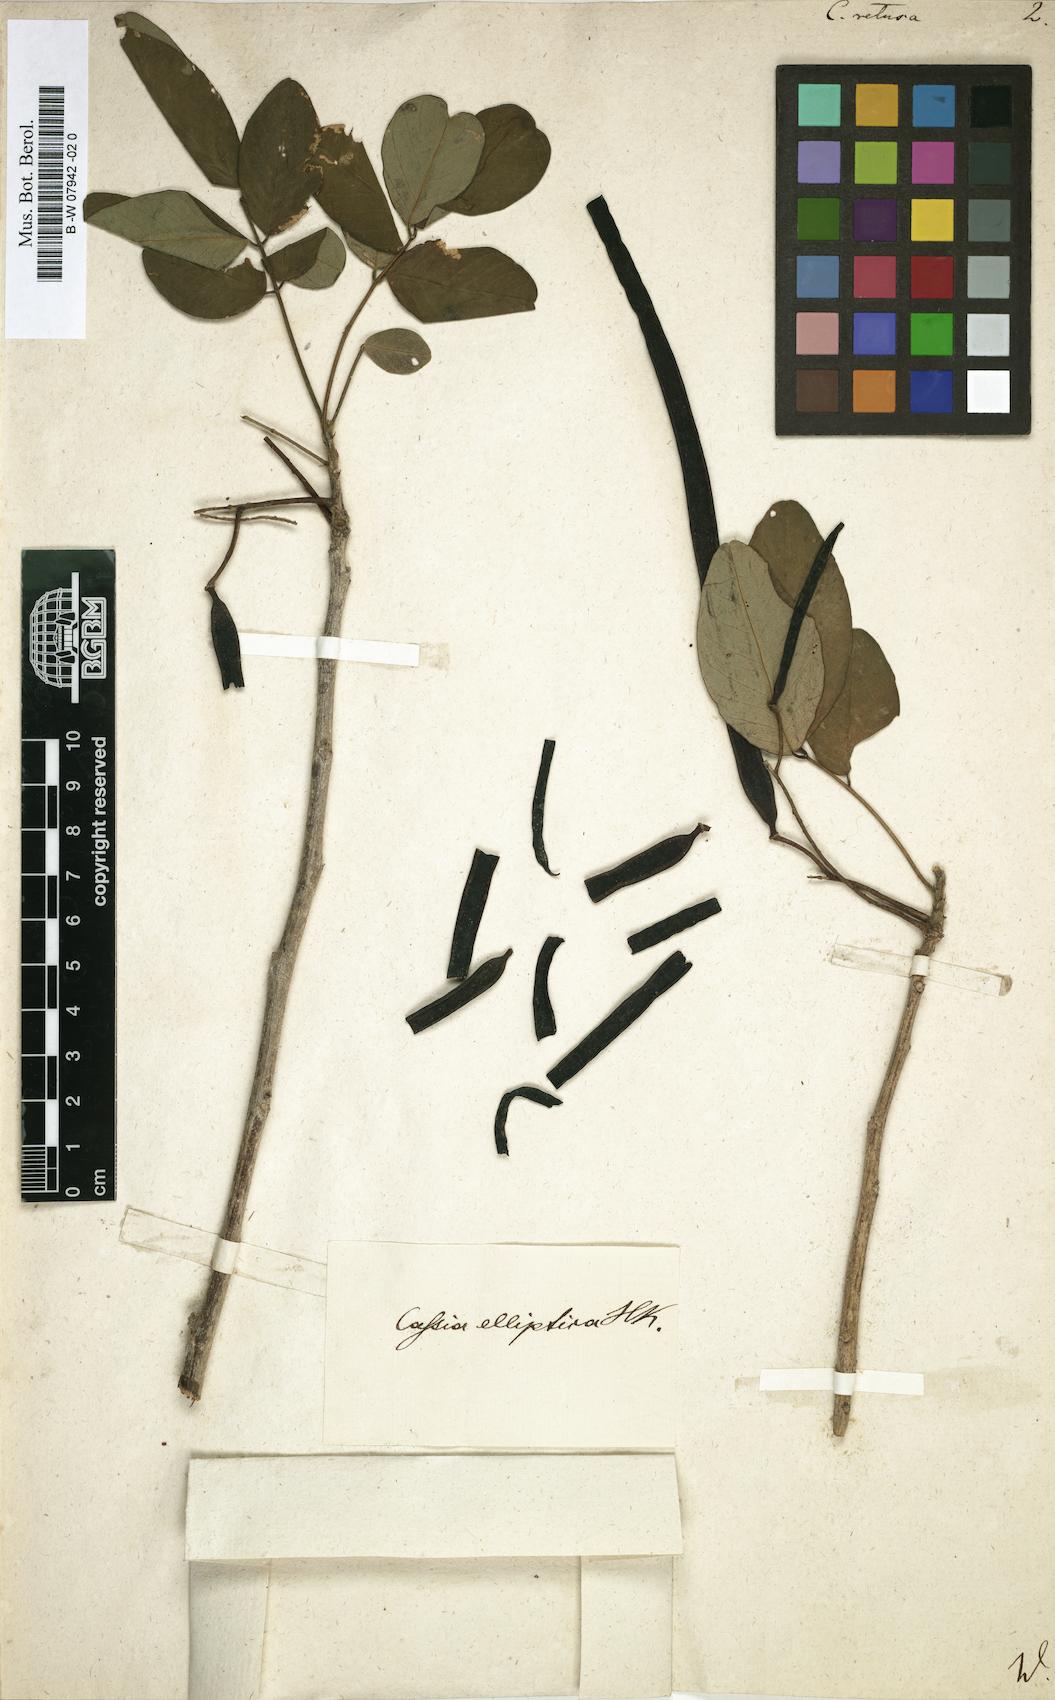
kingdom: Plantae
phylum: Tracheophyta
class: Magnoliopsida
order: Fabales
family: Fabaceae
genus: Senna
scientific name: Senna gaudichaudii
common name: Climbing cassia
